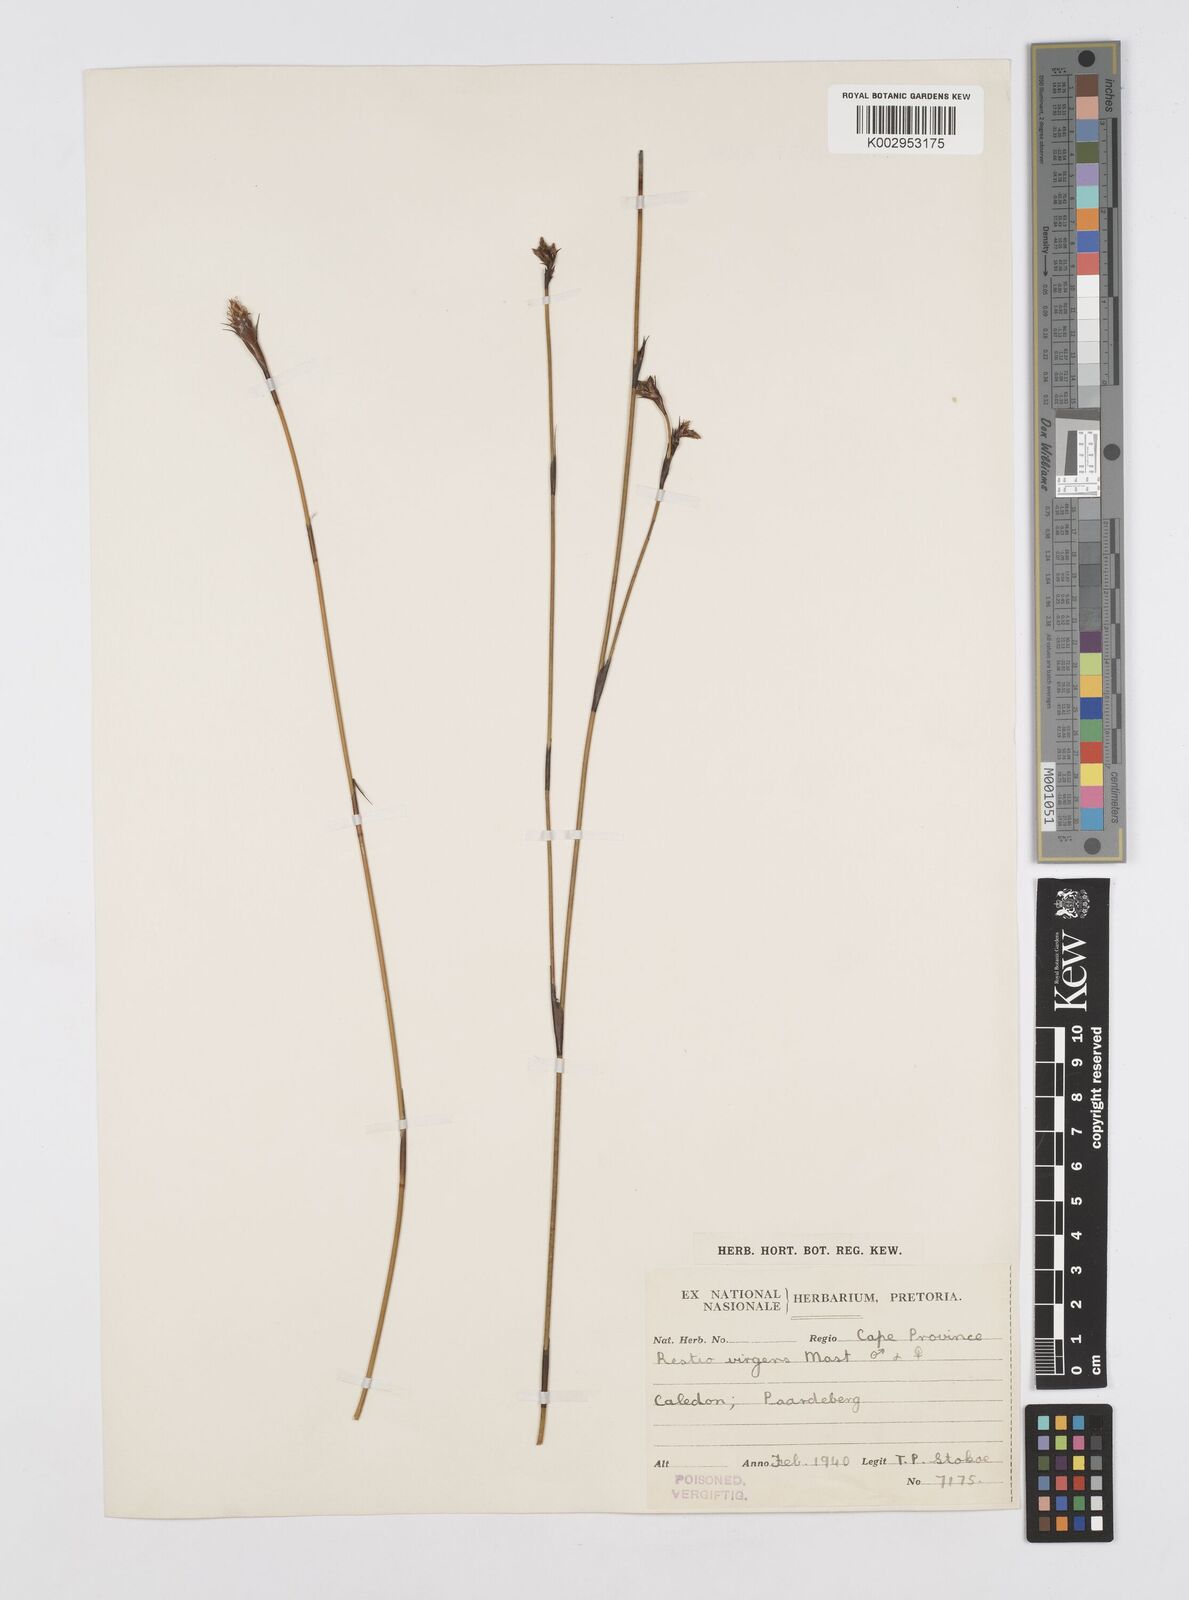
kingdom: Plantae
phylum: Tracheophyta
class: Liliopsida
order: Poales
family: Restionaceae
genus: Restio
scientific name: Restio virgeus
